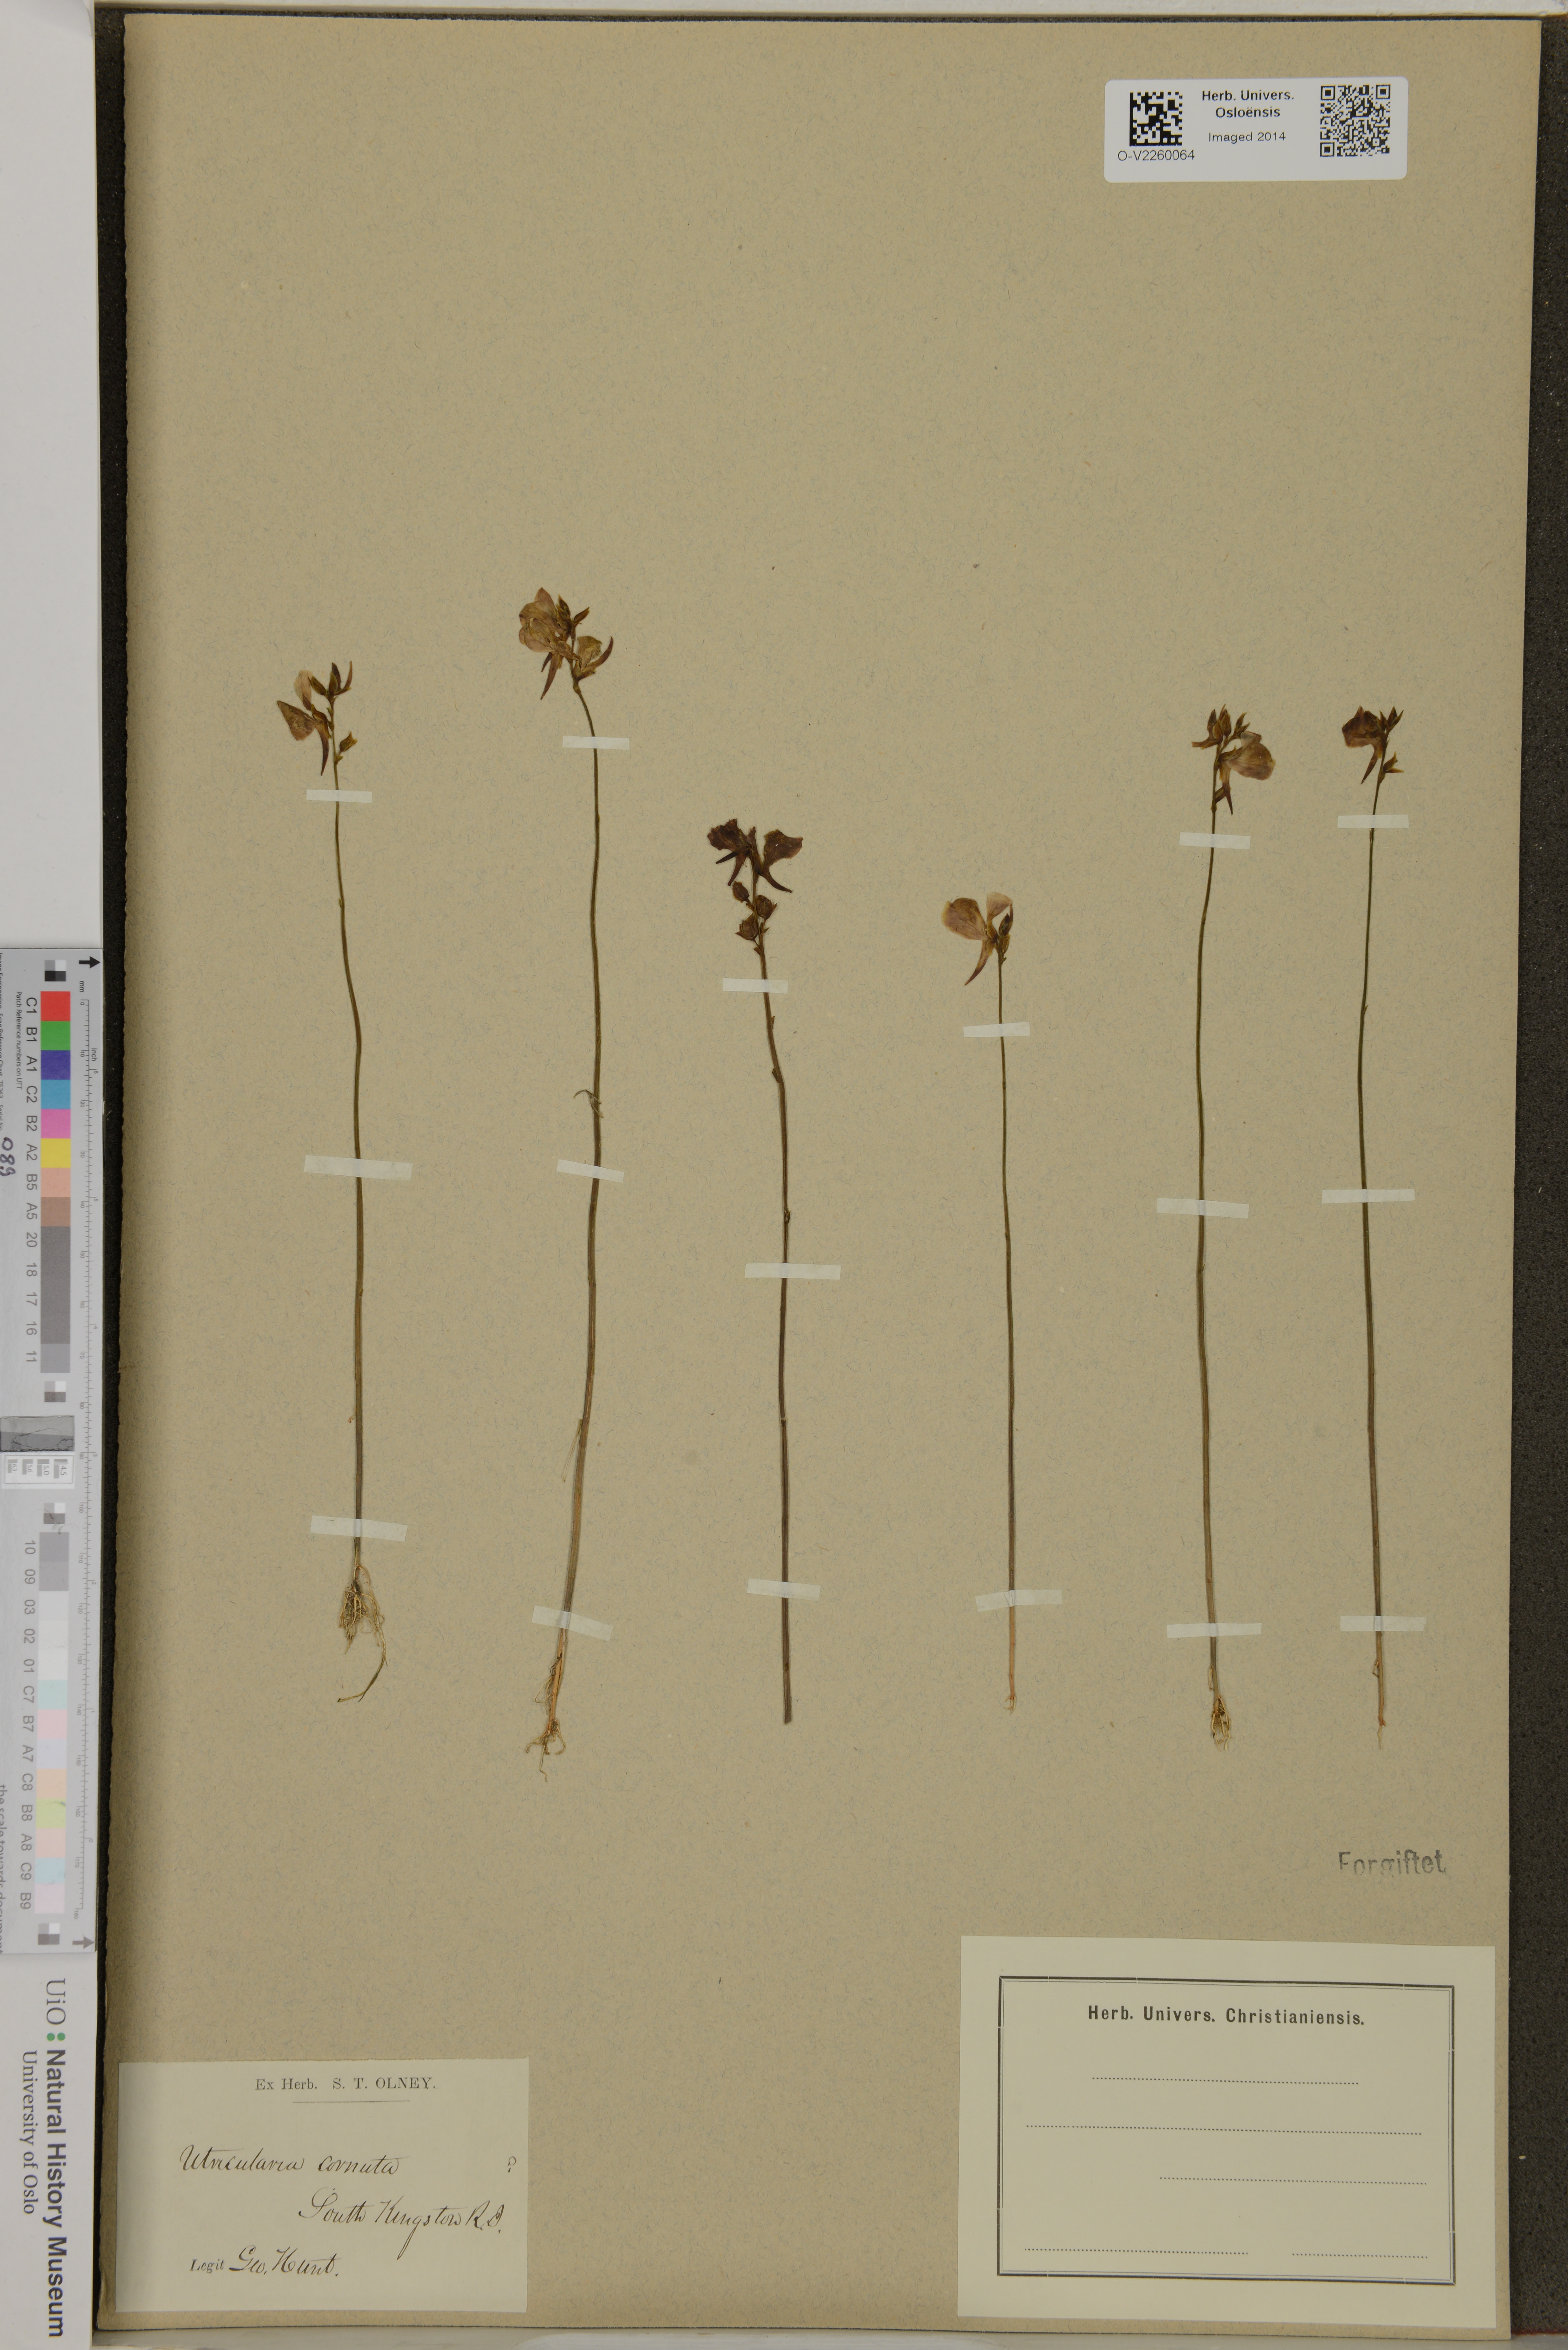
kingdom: Plantae
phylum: Tracheophyta
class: Magnoliopsida
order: Lamiales
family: Lentibulariaceae
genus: Utricularia
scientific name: Utricularia cornuta
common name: Horned bladderwort
